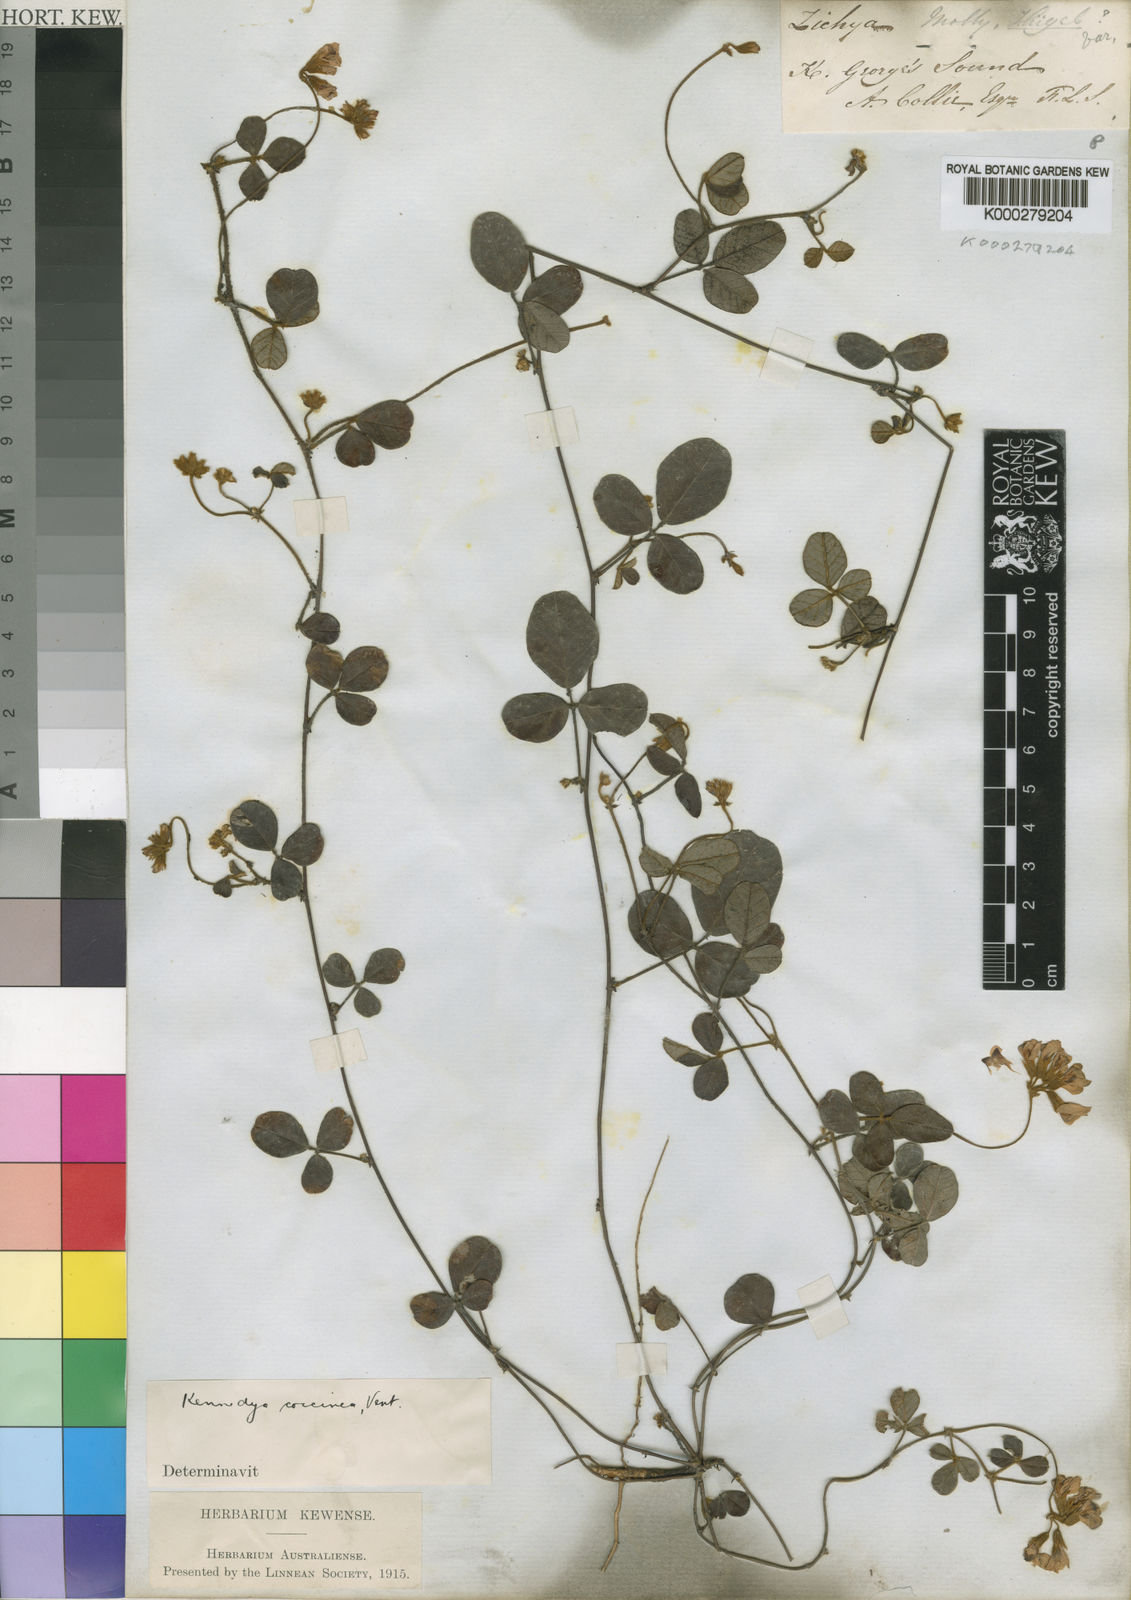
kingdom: Plantae
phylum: Tracheophyta
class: Magnoliopsida
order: Fabales
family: Fabaceae
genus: Kennedia
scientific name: Kennedia coccinea
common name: Coralvine
